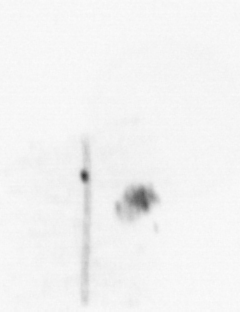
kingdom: Chromista
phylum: Ochrophyta
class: Bacillariophyceae
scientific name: Bacillariophyceae
